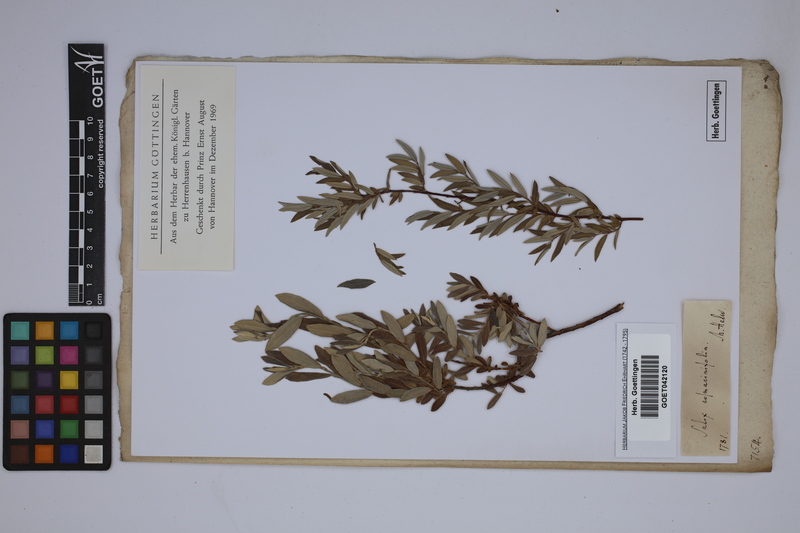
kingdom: Plantae
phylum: Tracheophyta
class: Magnoliopsida
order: Malpighiales
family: Salicaceae
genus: Salix
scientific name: Salix rosmarinifolia
